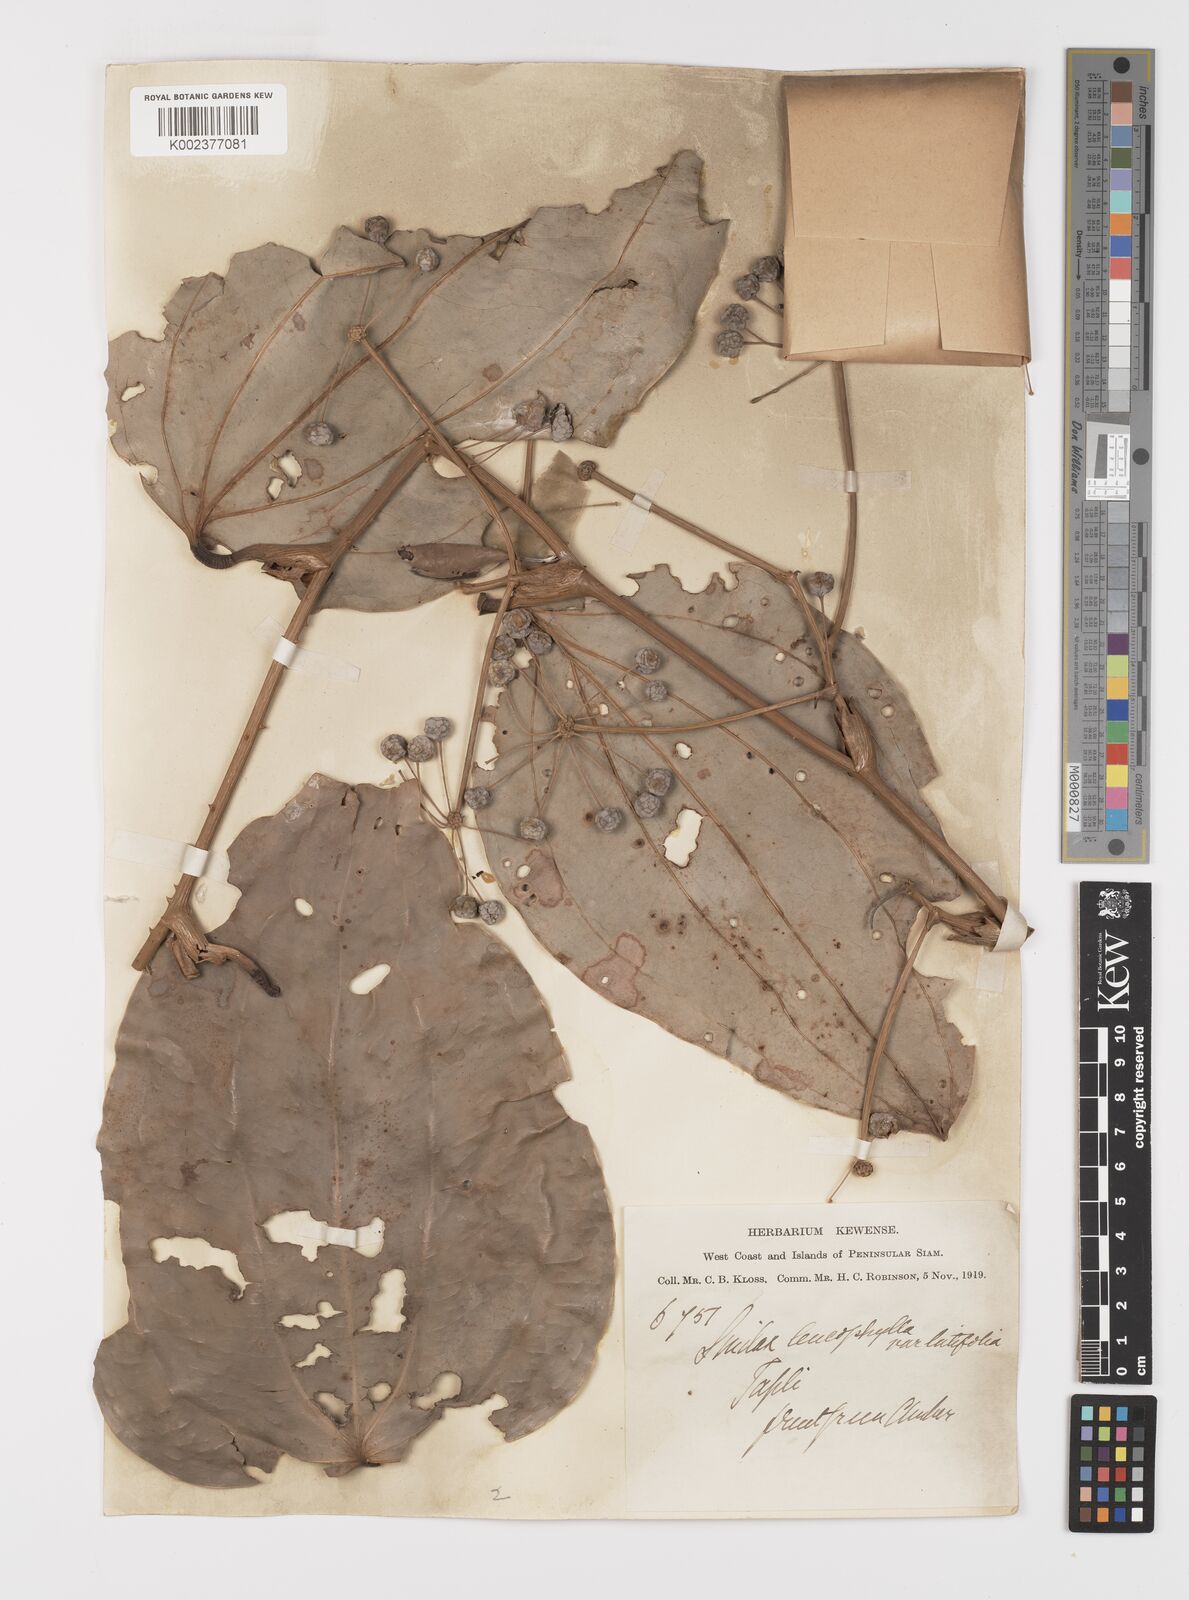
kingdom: Plantae
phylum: Tracheophyta
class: Liliopsida
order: Liliales
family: Smilacaceae
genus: Smilax
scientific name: Smilax leucophylla
